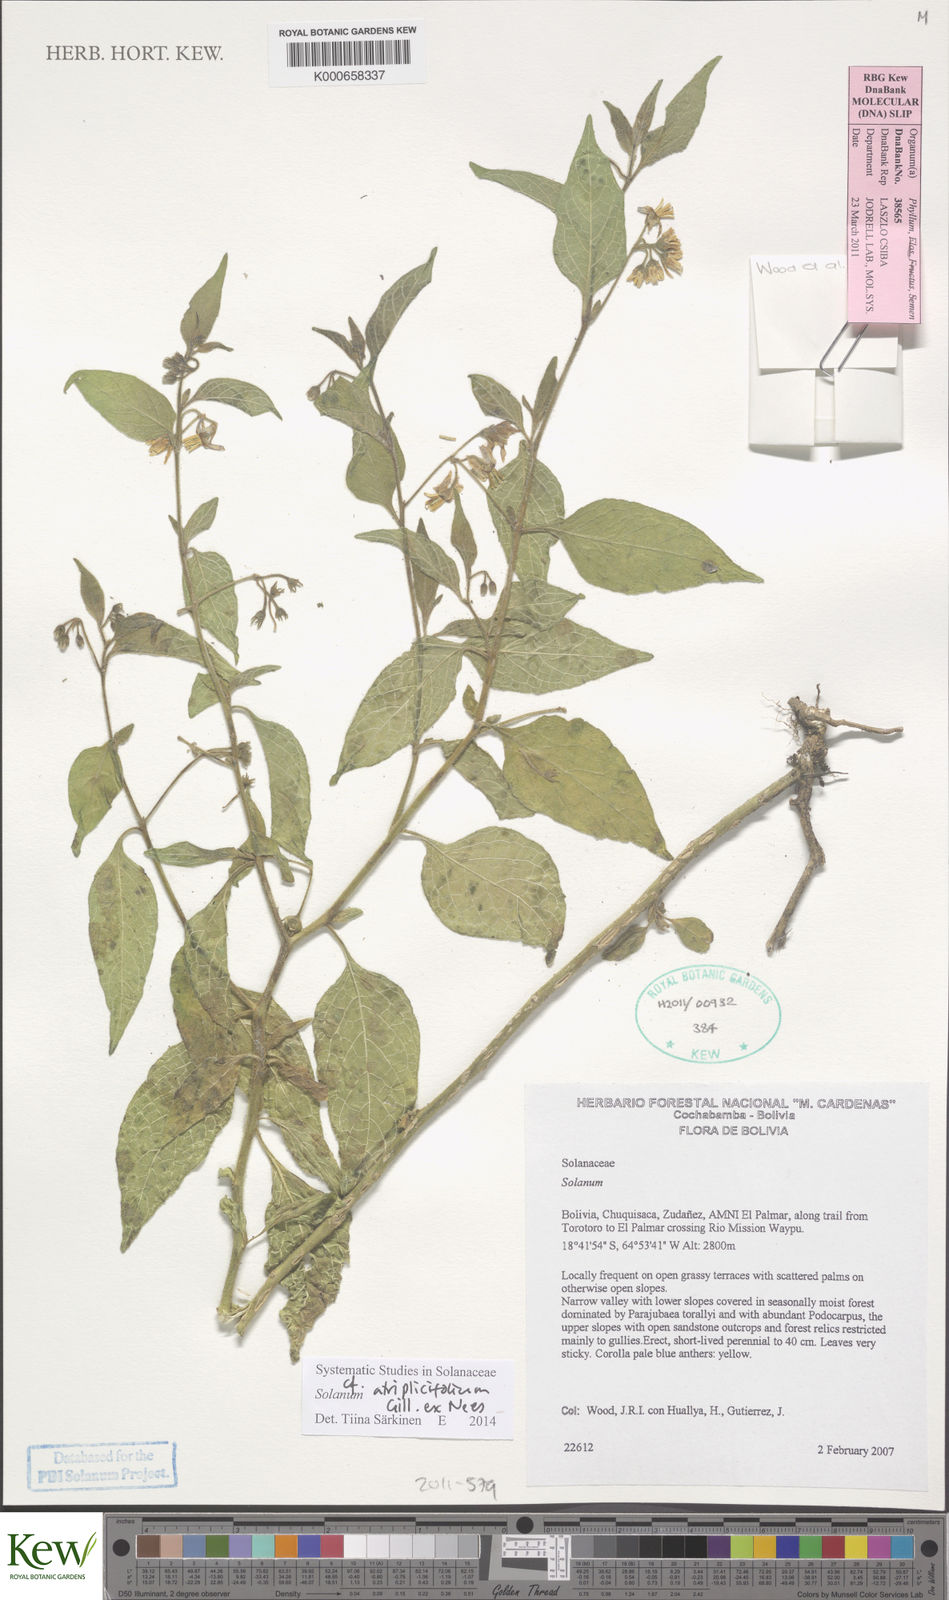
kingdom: Plantae
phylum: Tracheophyta
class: Magnoliopsida
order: Solanales
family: Solanaceae
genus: Solanum
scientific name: Solanum tweedianum
